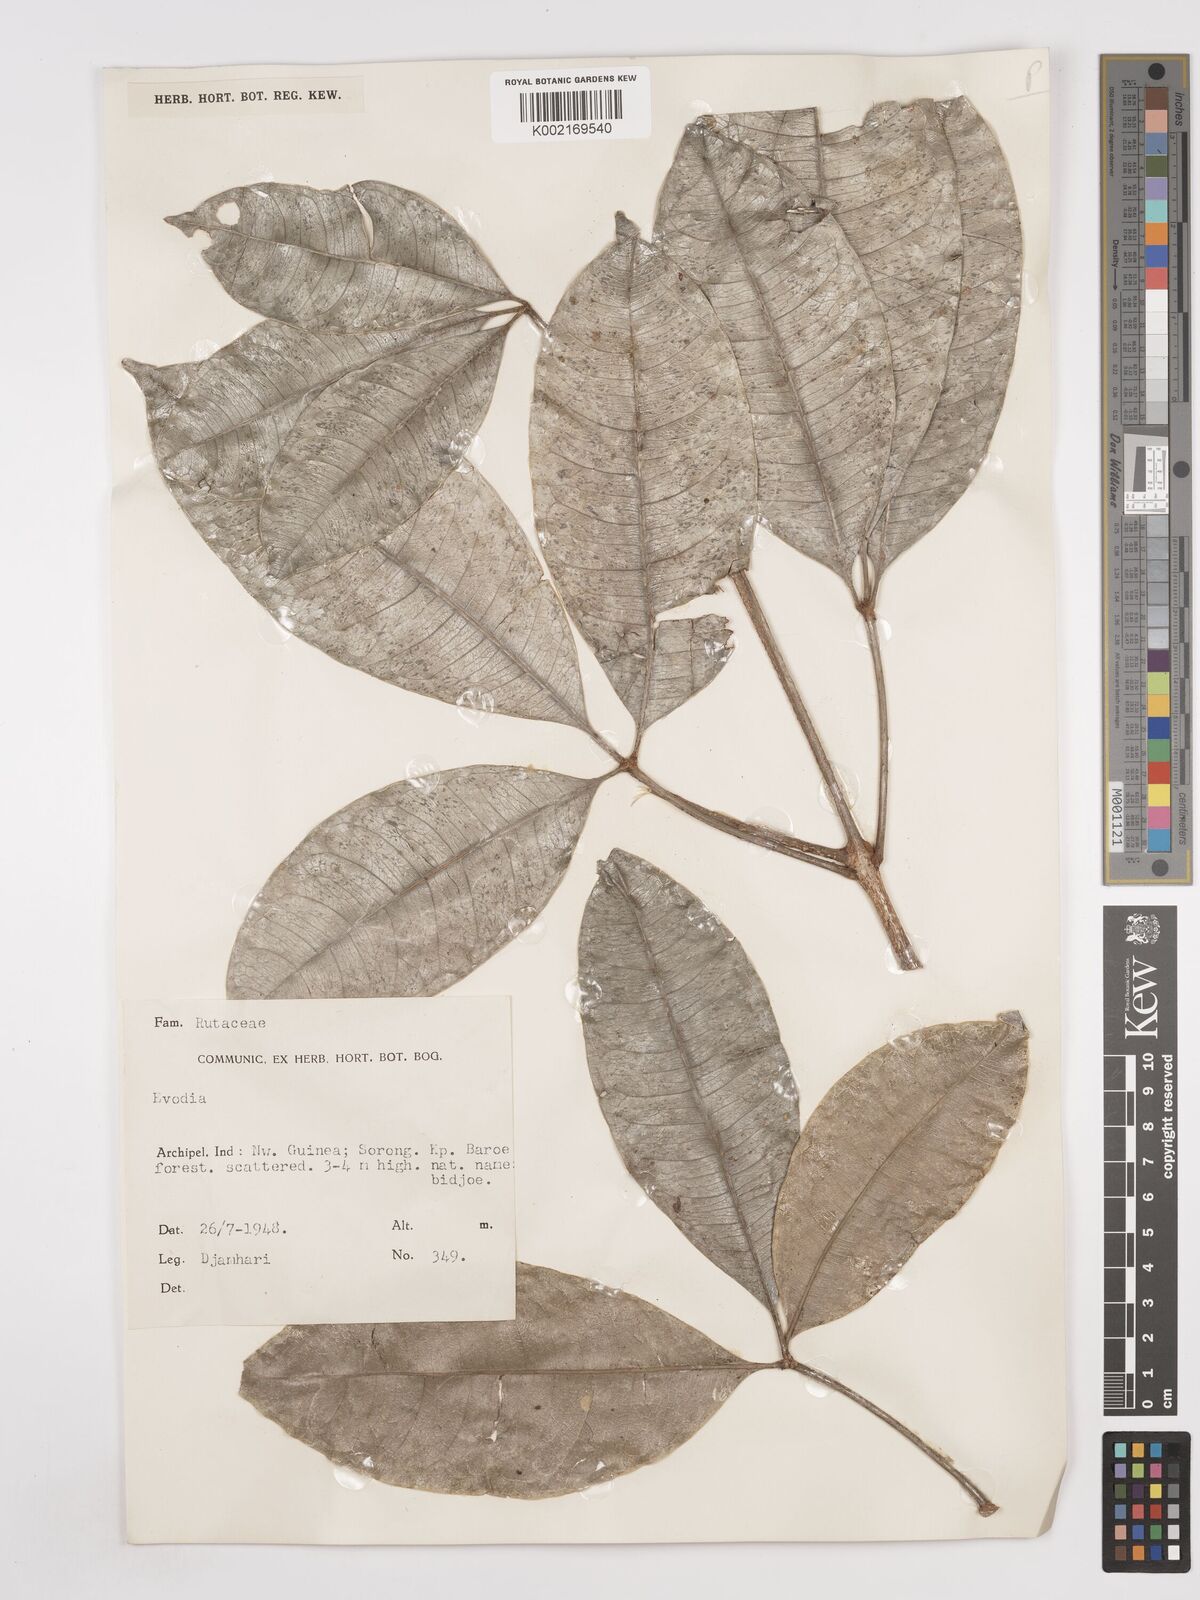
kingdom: Plantae
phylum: Tracheophyta
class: Magnoliopsida
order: Sapindales
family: Rutaceae
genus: Euodia
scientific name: Euodia
